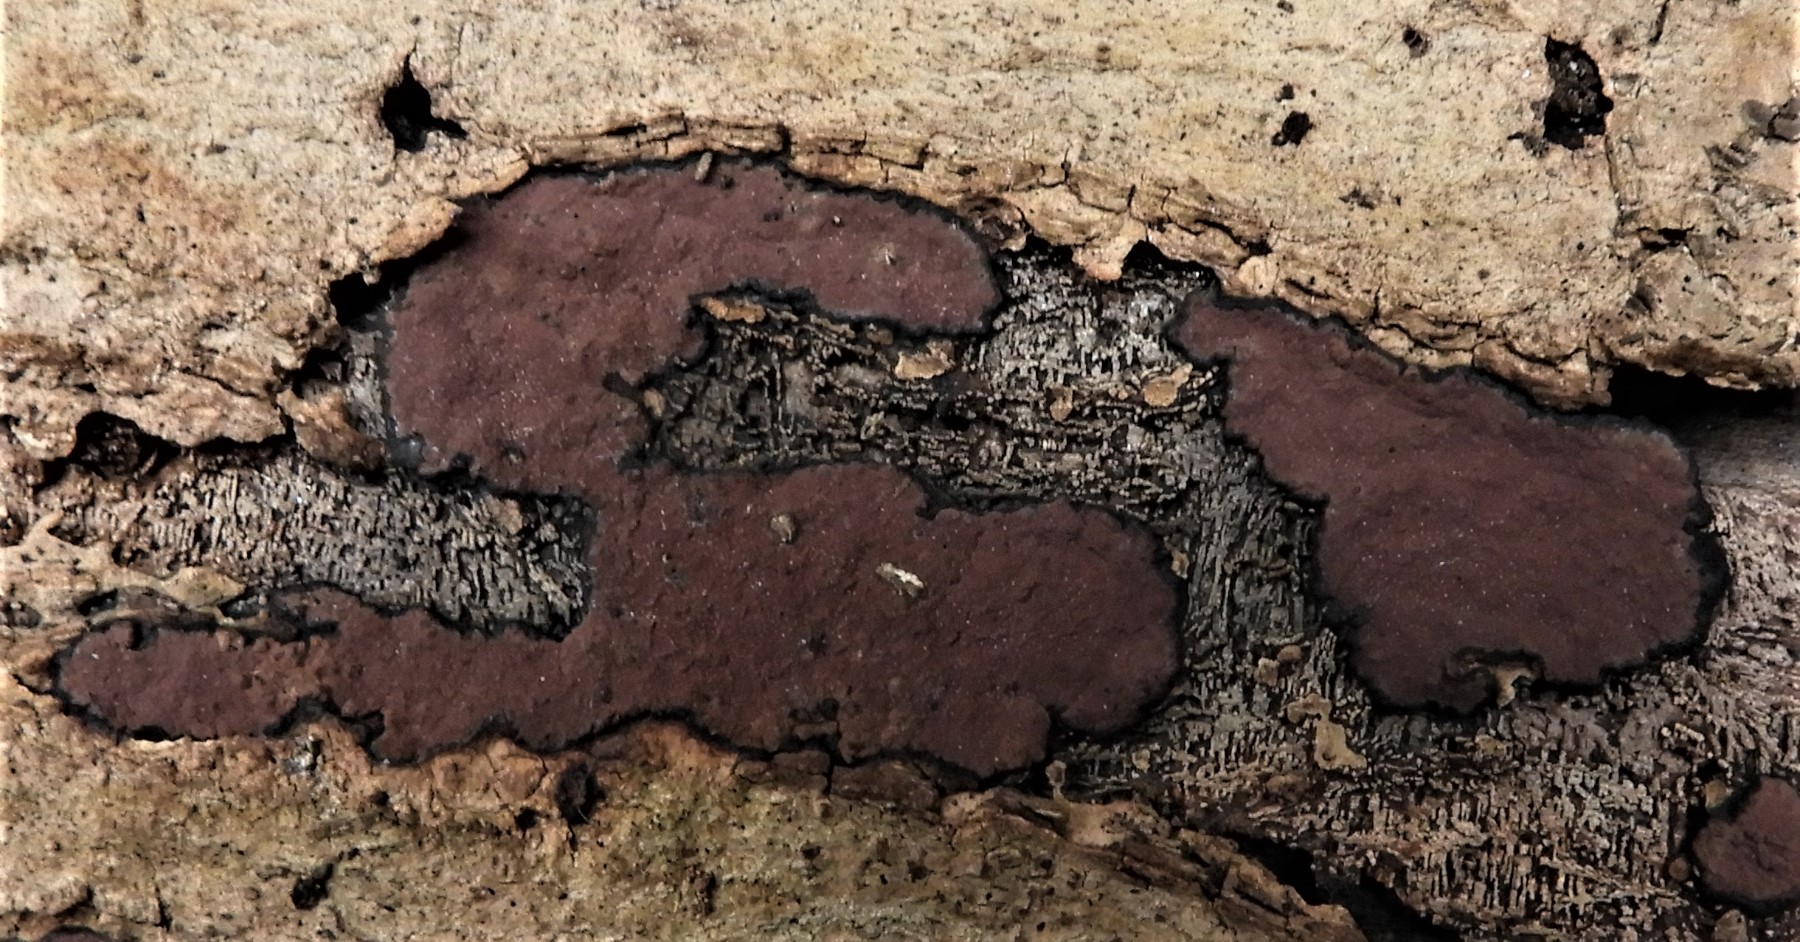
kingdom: Fungi
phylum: Ascomycota
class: Sordariomycetes
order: Xylariales
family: Hypoxylaceae
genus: Hypoxylon
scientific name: Hypoxylon petriniae
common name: nedsænket kulbær
